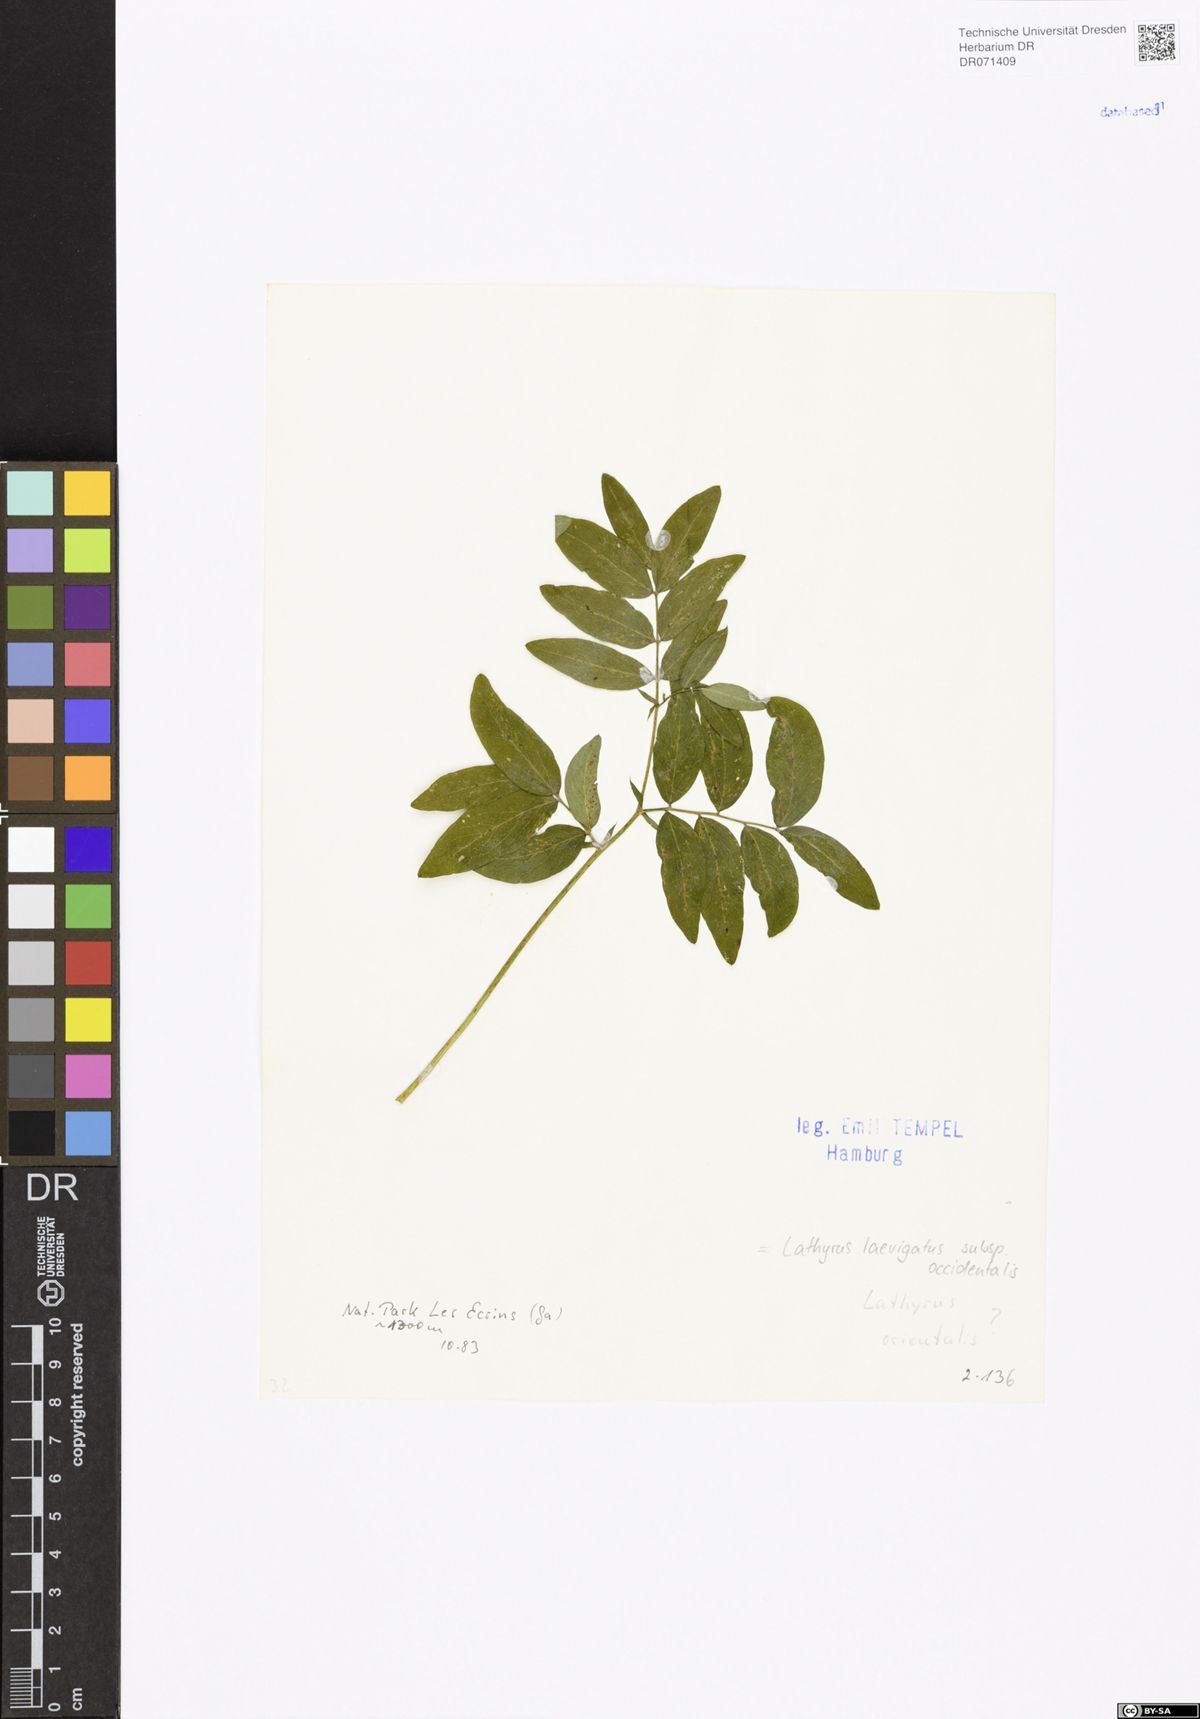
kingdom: Plantae
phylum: Tracheophyta
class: Magnoliopsida
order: Fabales
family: Fabaceae
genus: Lathyrus
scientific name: Lathyrus laevigatus
